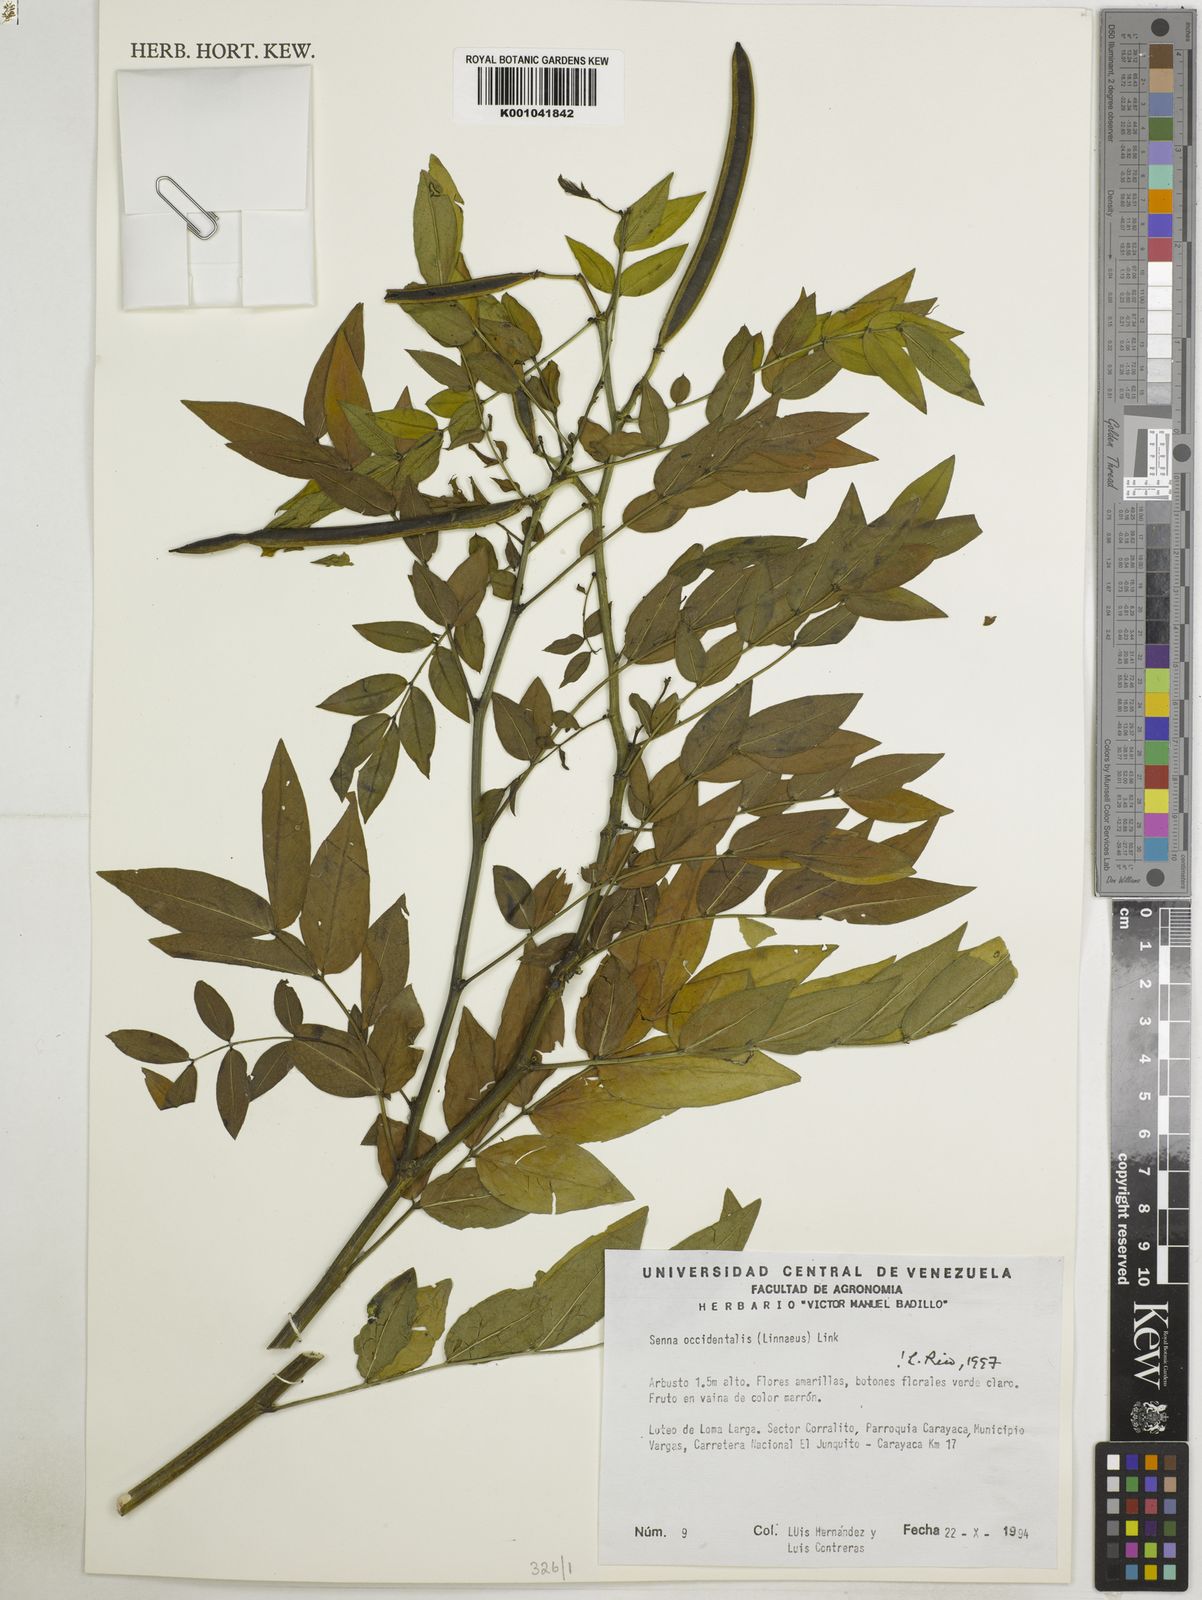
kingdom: Plantae
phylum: Tracheophyta
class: Magnoliopsida
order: Fabales
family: Fabaceae
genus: Senna
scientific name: Senna occidentalis
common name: Septicweed
